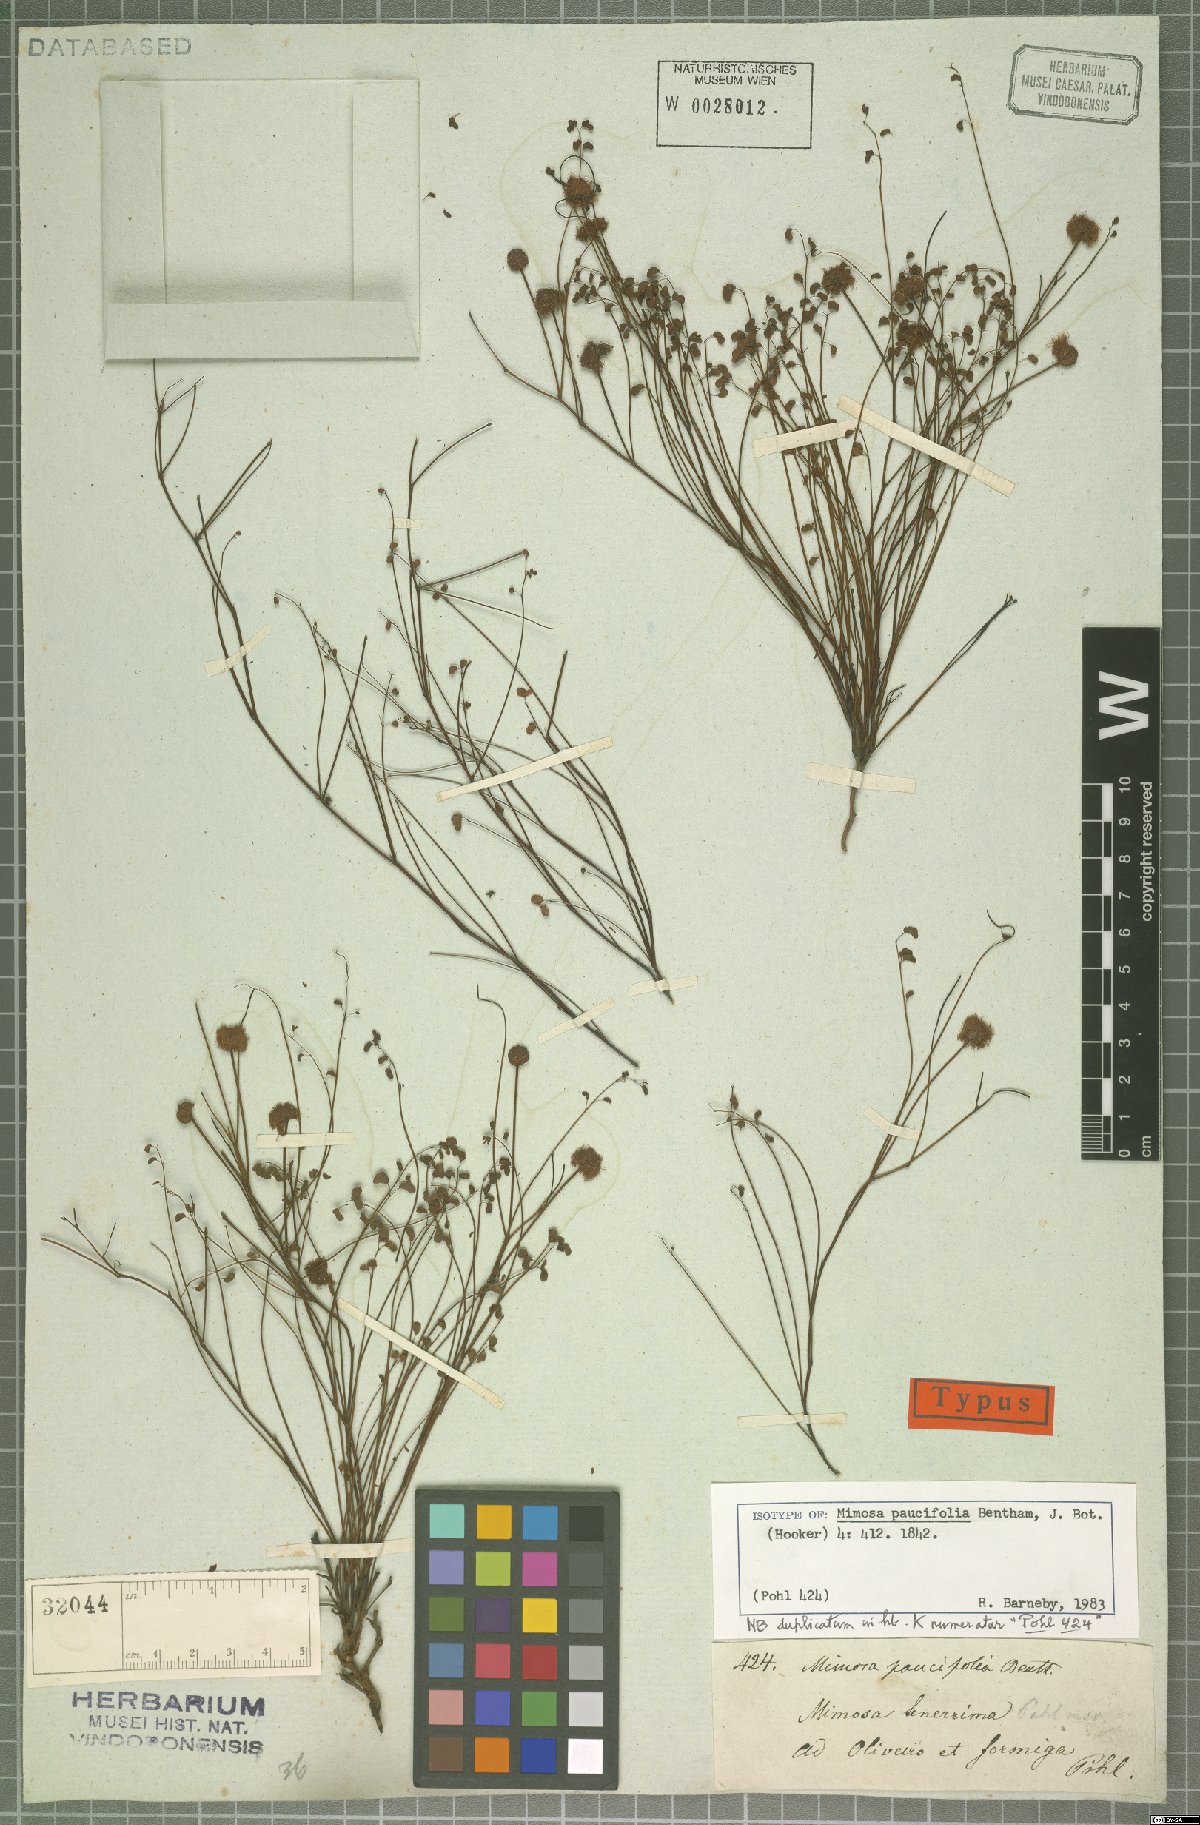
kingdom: Plantae
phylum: Tracheophyta
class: Magnoliopsida
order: Fabales
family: Fabaceae
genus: Mimosa
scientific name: Mimosa paucifolia
